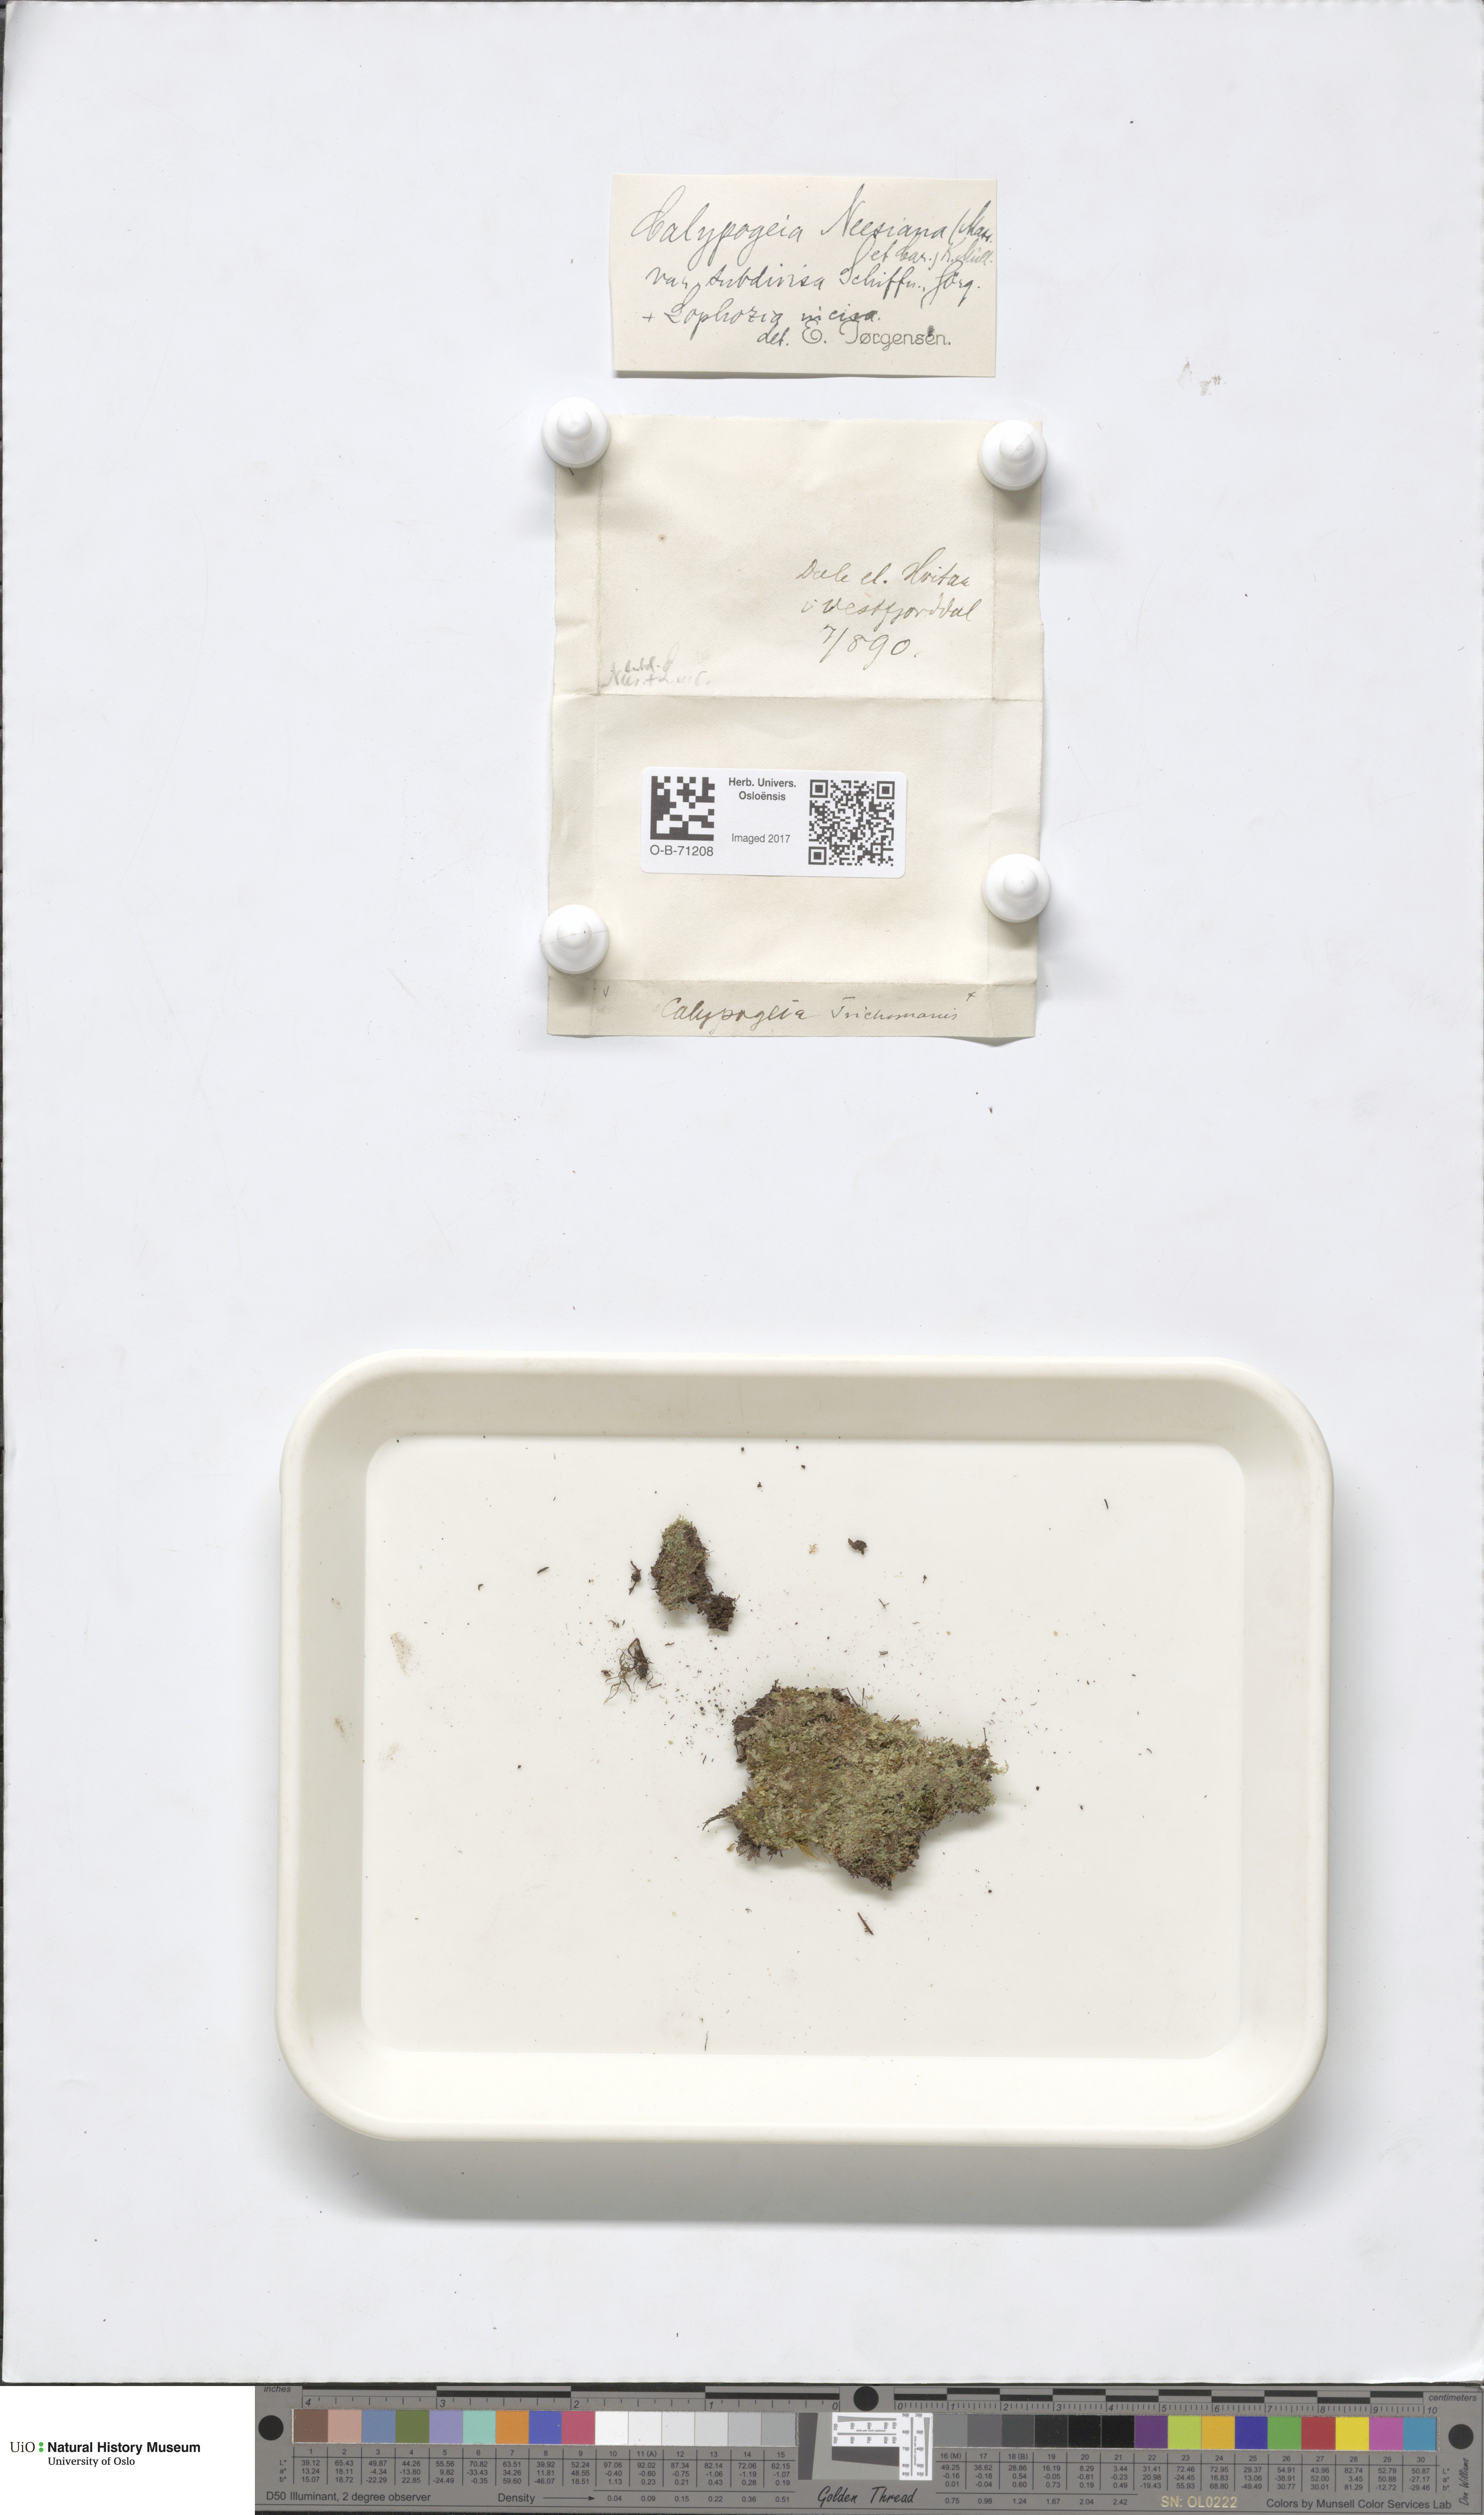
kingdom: Plantae
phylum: Marchantiophyta
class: Jungermanniopsida
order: Jungermanniales
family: Calypogeiaceae
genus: Calypogeia
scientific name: Calypogeia neesiana
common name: Nees  pouchwort
